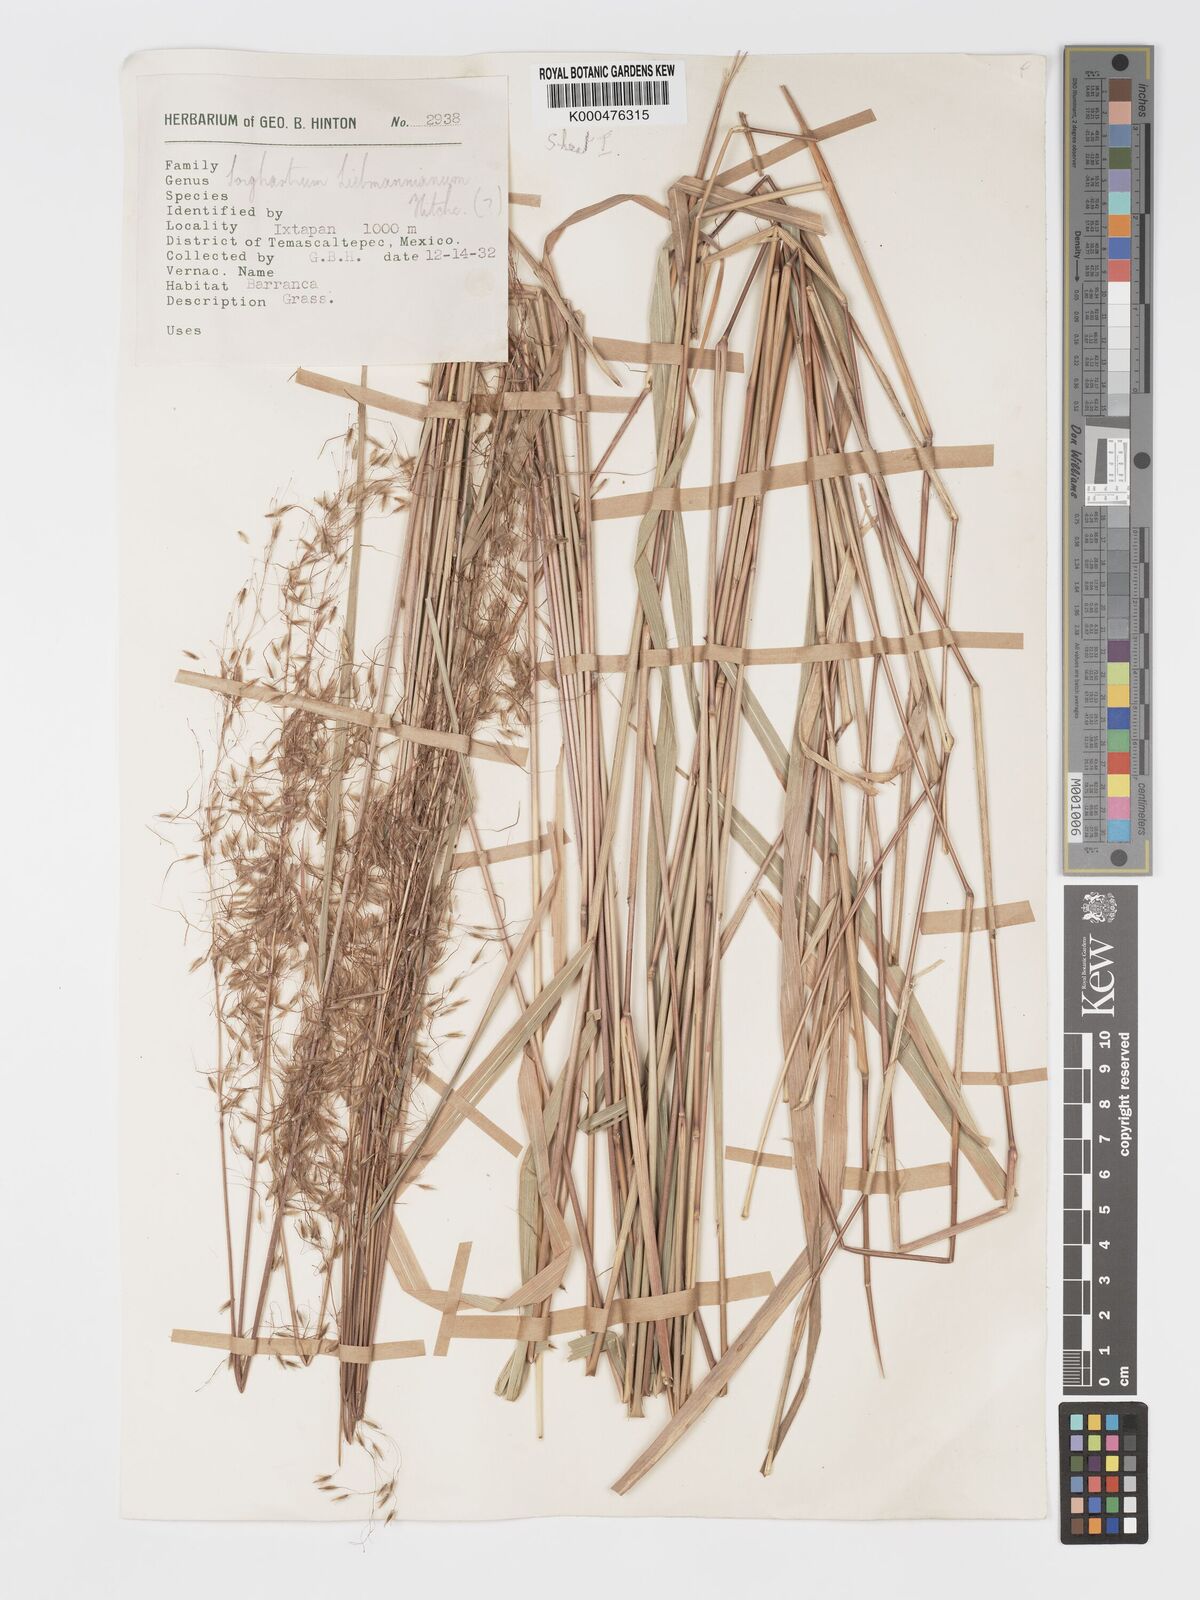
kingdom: Plantae
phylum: Tracheophyta
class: Liliopsida
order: Poales
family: Poaceae
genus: Sorghastrum
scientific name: Sorghastrum incompletum
